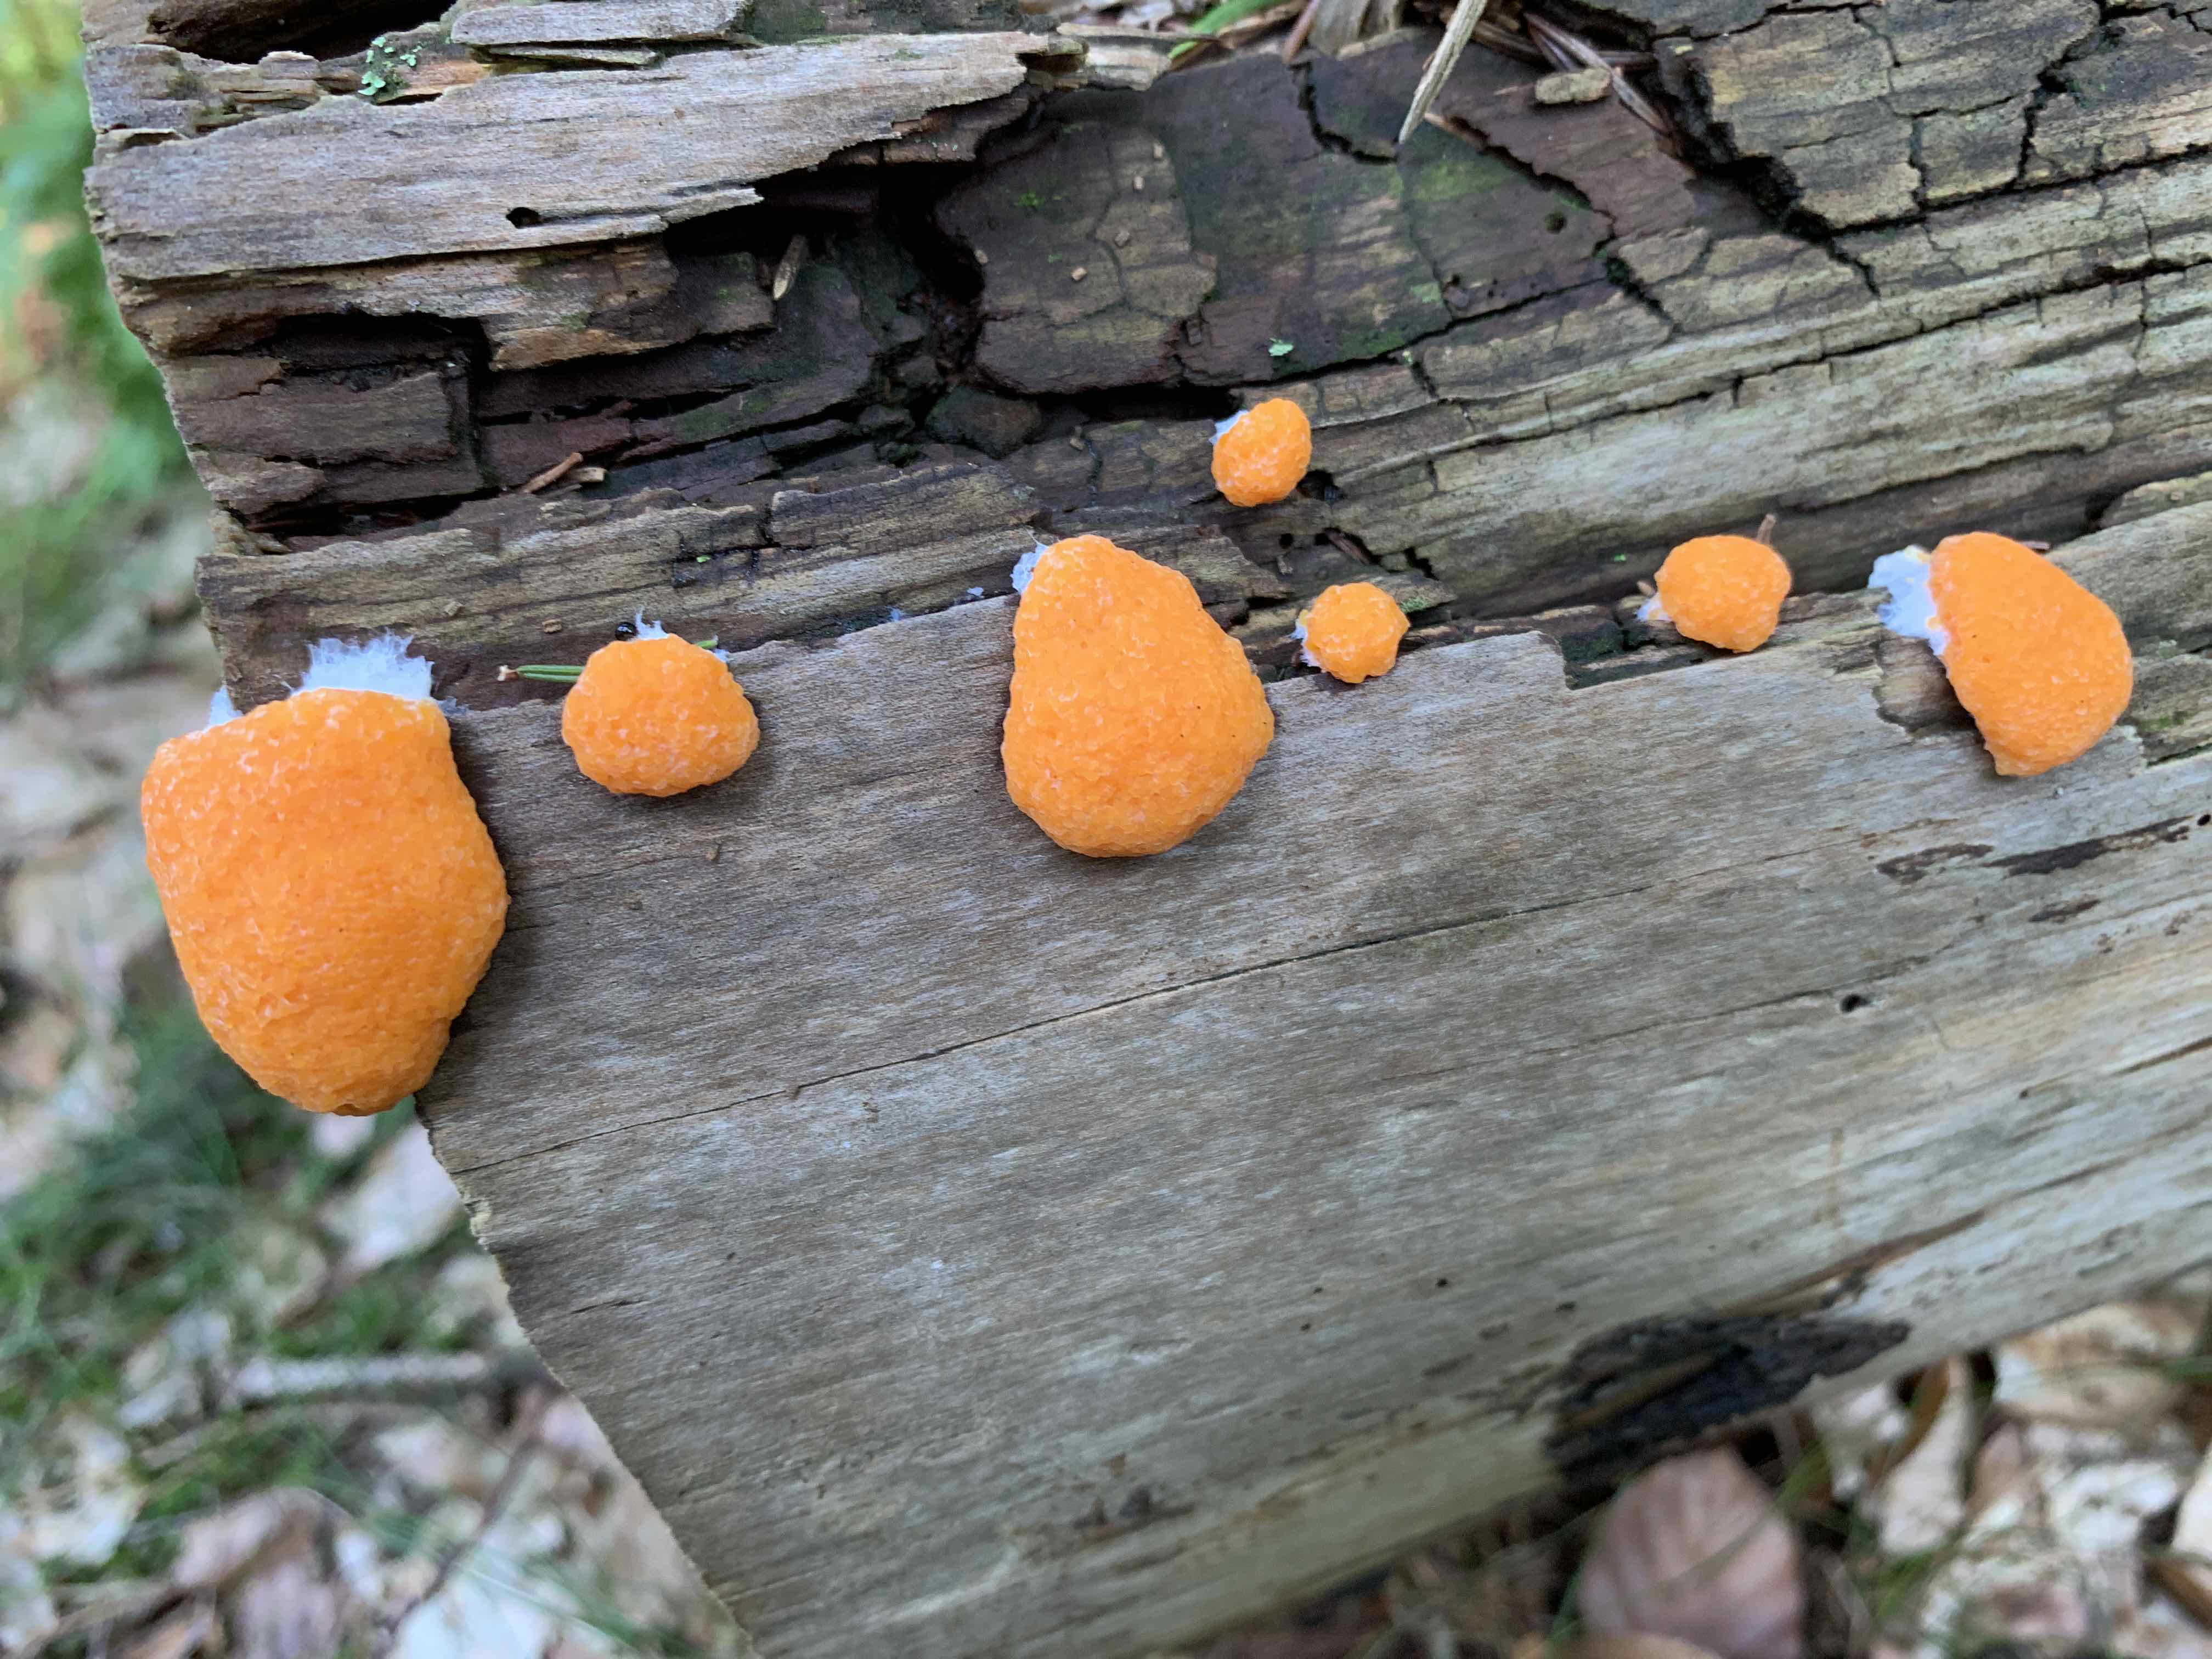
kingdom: Protozoa
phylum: Mycetozoa
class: Myxomycetes
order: Cribrariales
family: Tubiferaceae
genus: Tubifera
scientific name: Tubifera ferruginosa
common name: kanel-støvrør
